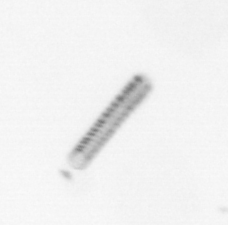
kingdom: Chromista
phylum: Ochrophyta
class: Bacillariophyceae
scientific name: Bacillariophyceae
